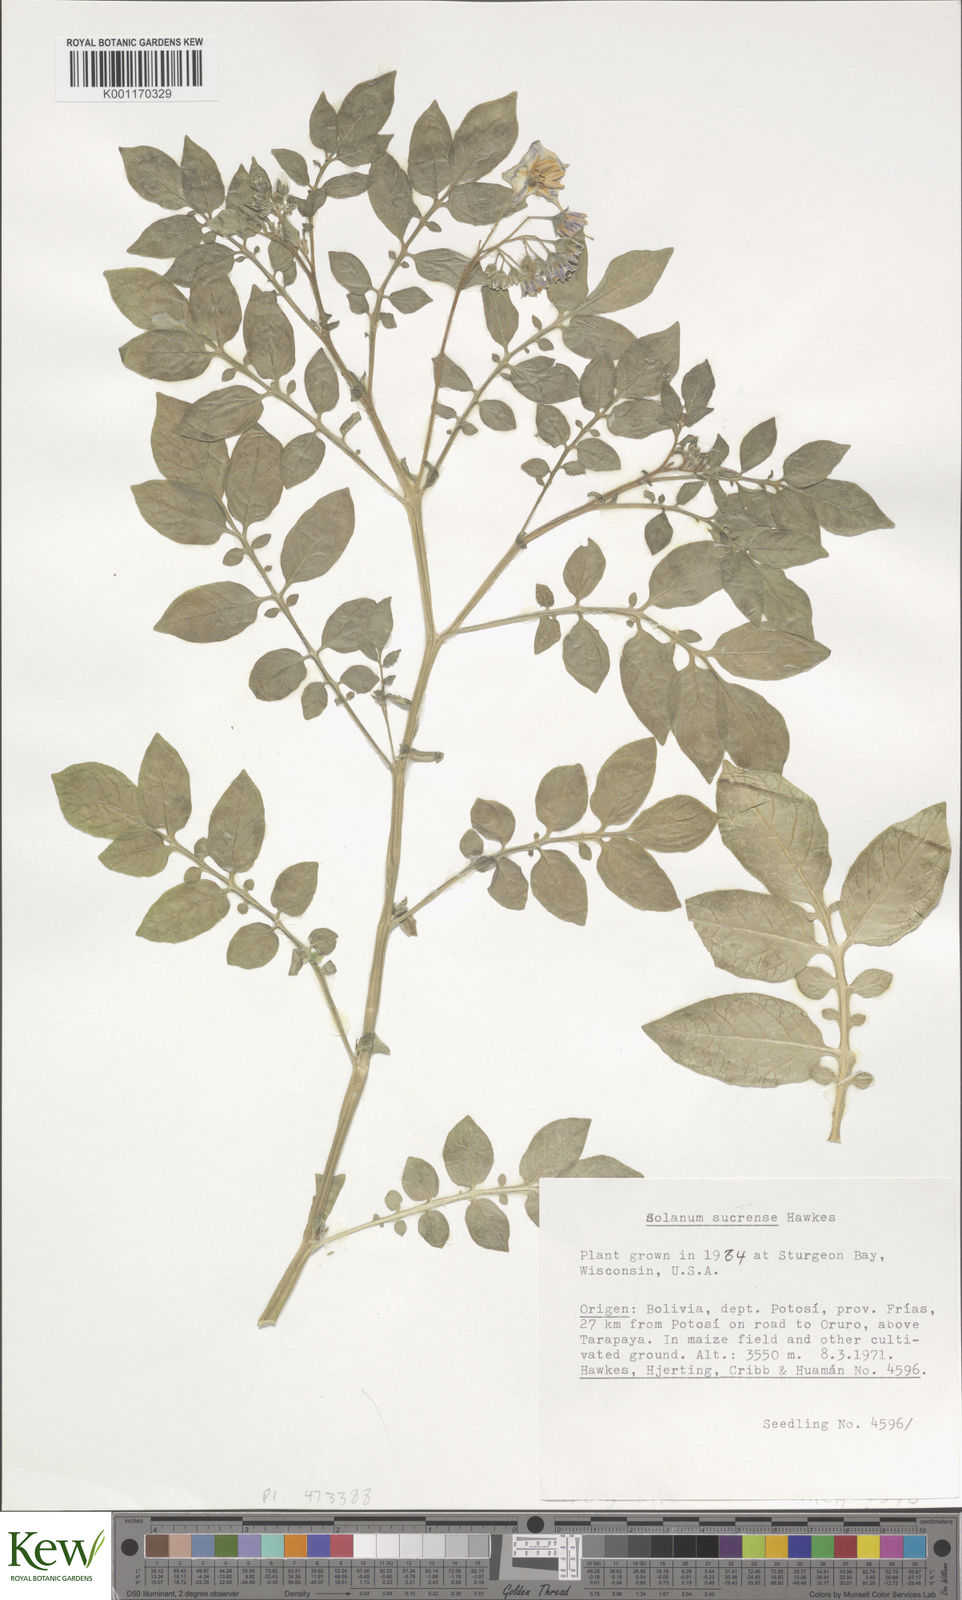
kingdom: Plantae
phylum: Tracheophyta
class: Magnoliopsida
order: Solanales
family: Solanaceae
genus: Solanum
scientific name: Solanum brevicaule
